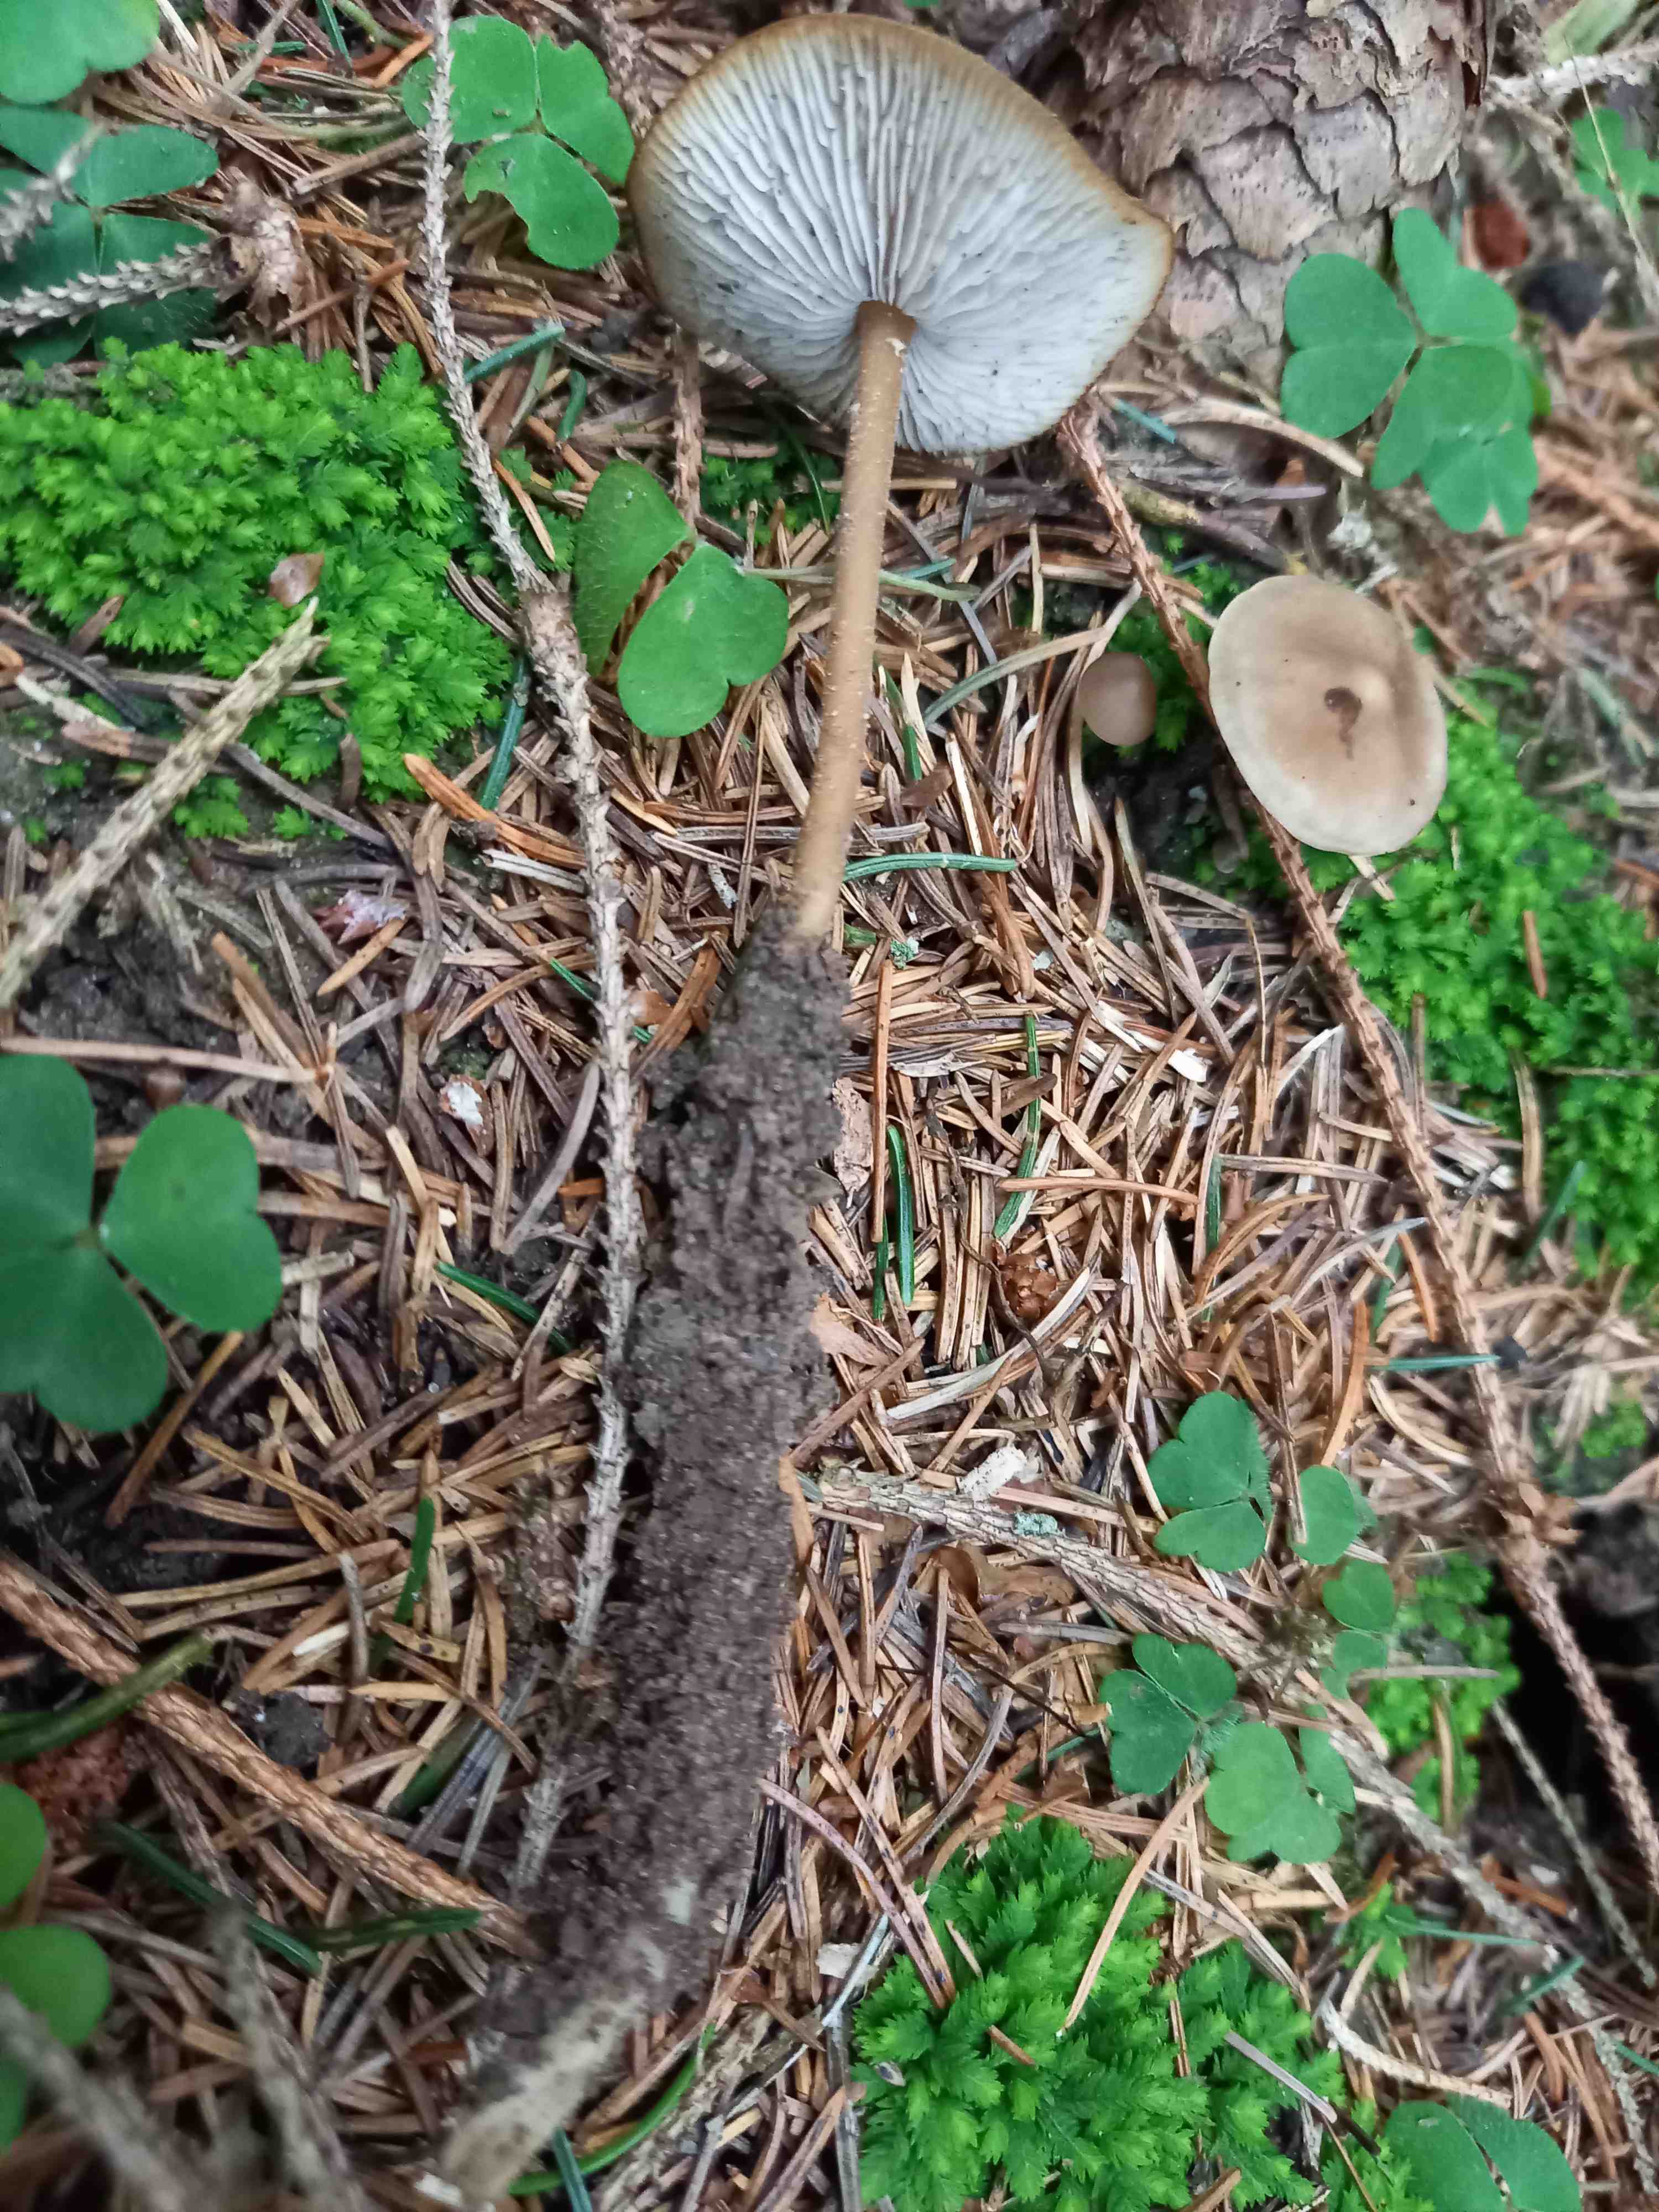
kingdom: Fungi
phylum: Basidiomycota
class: Agaricomycetes
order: Agaricales
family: Physalacriaceae
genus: Strobilurus
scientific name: Strobilurus esculentus
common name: gran-koglehat
